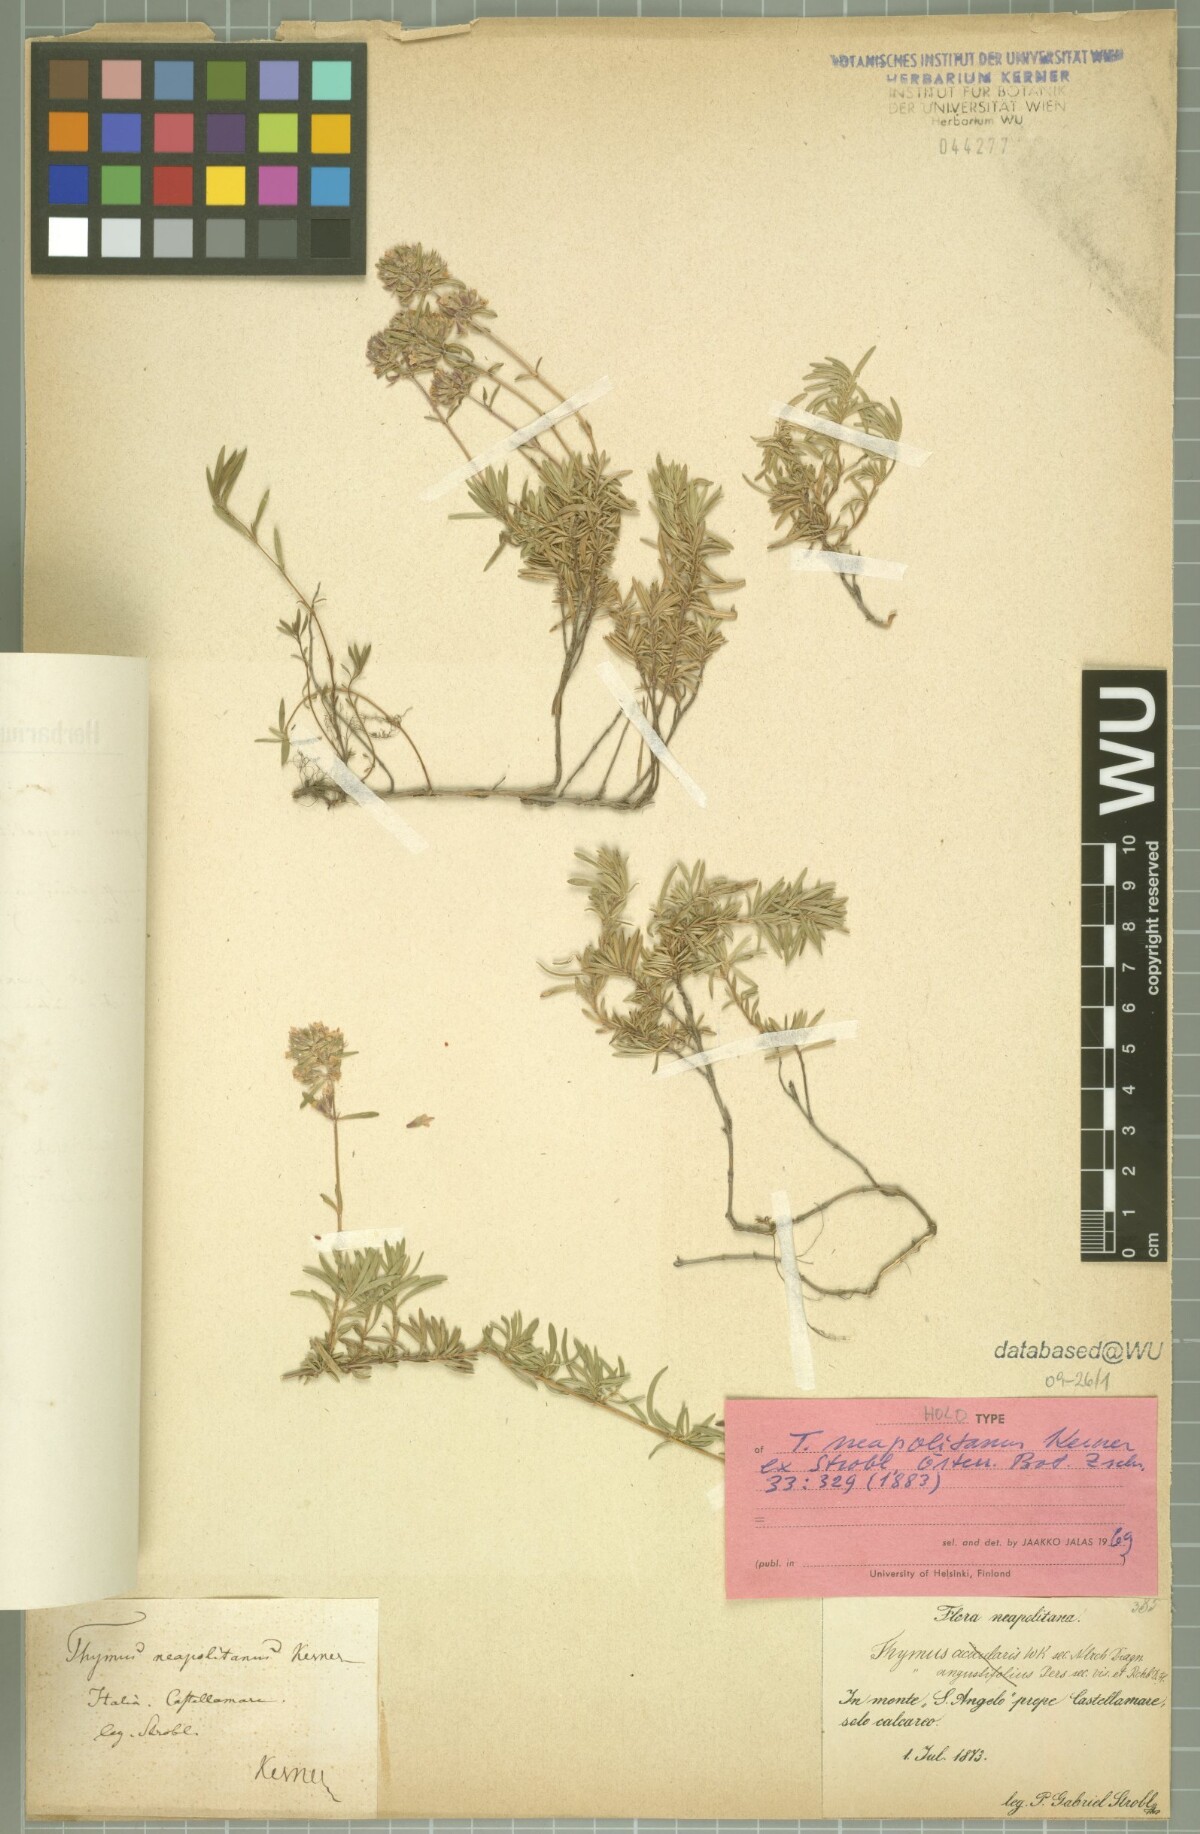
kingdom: Plantae
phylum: Tracheophyta
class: Magnoliopsida
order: Lamiales
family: Lamiaceae
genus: Thymus
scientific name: Thymus striatus
